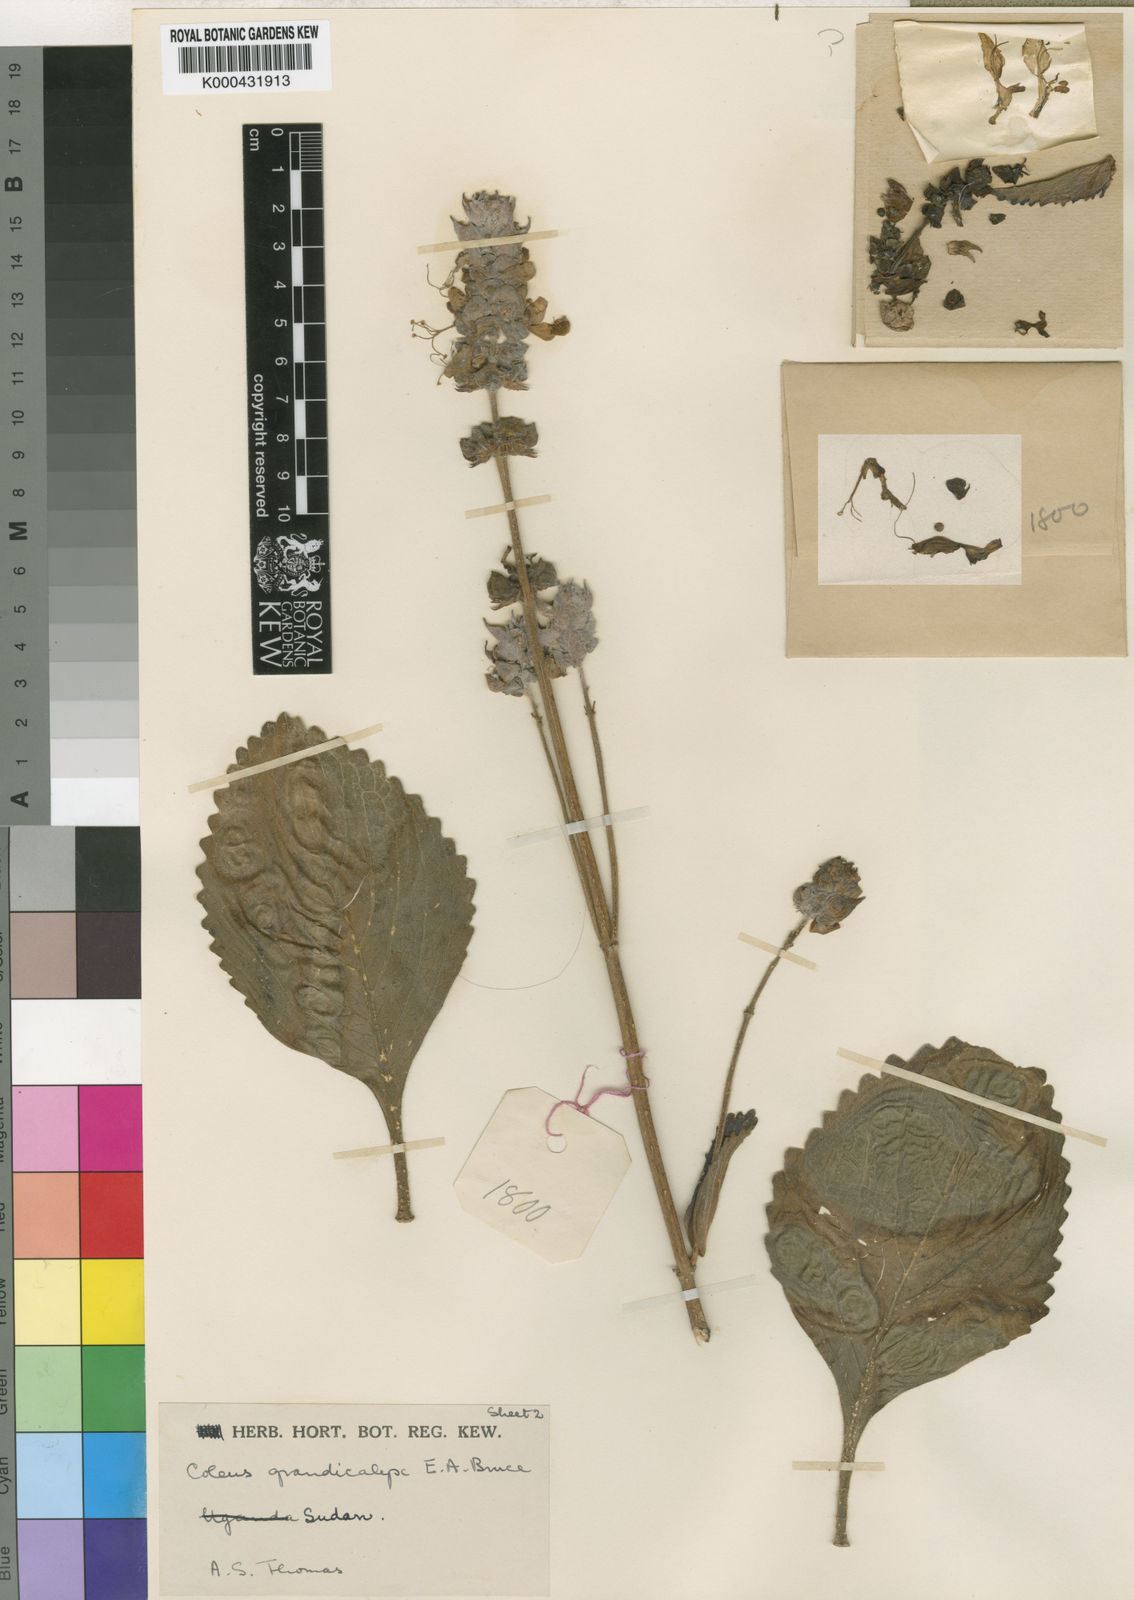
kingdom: Plantae
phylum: Tracheophyta
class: Magnoliopsida
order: Lamiales
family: Lamiaceae
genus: Coleus
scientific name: Coleus grandicalyx
